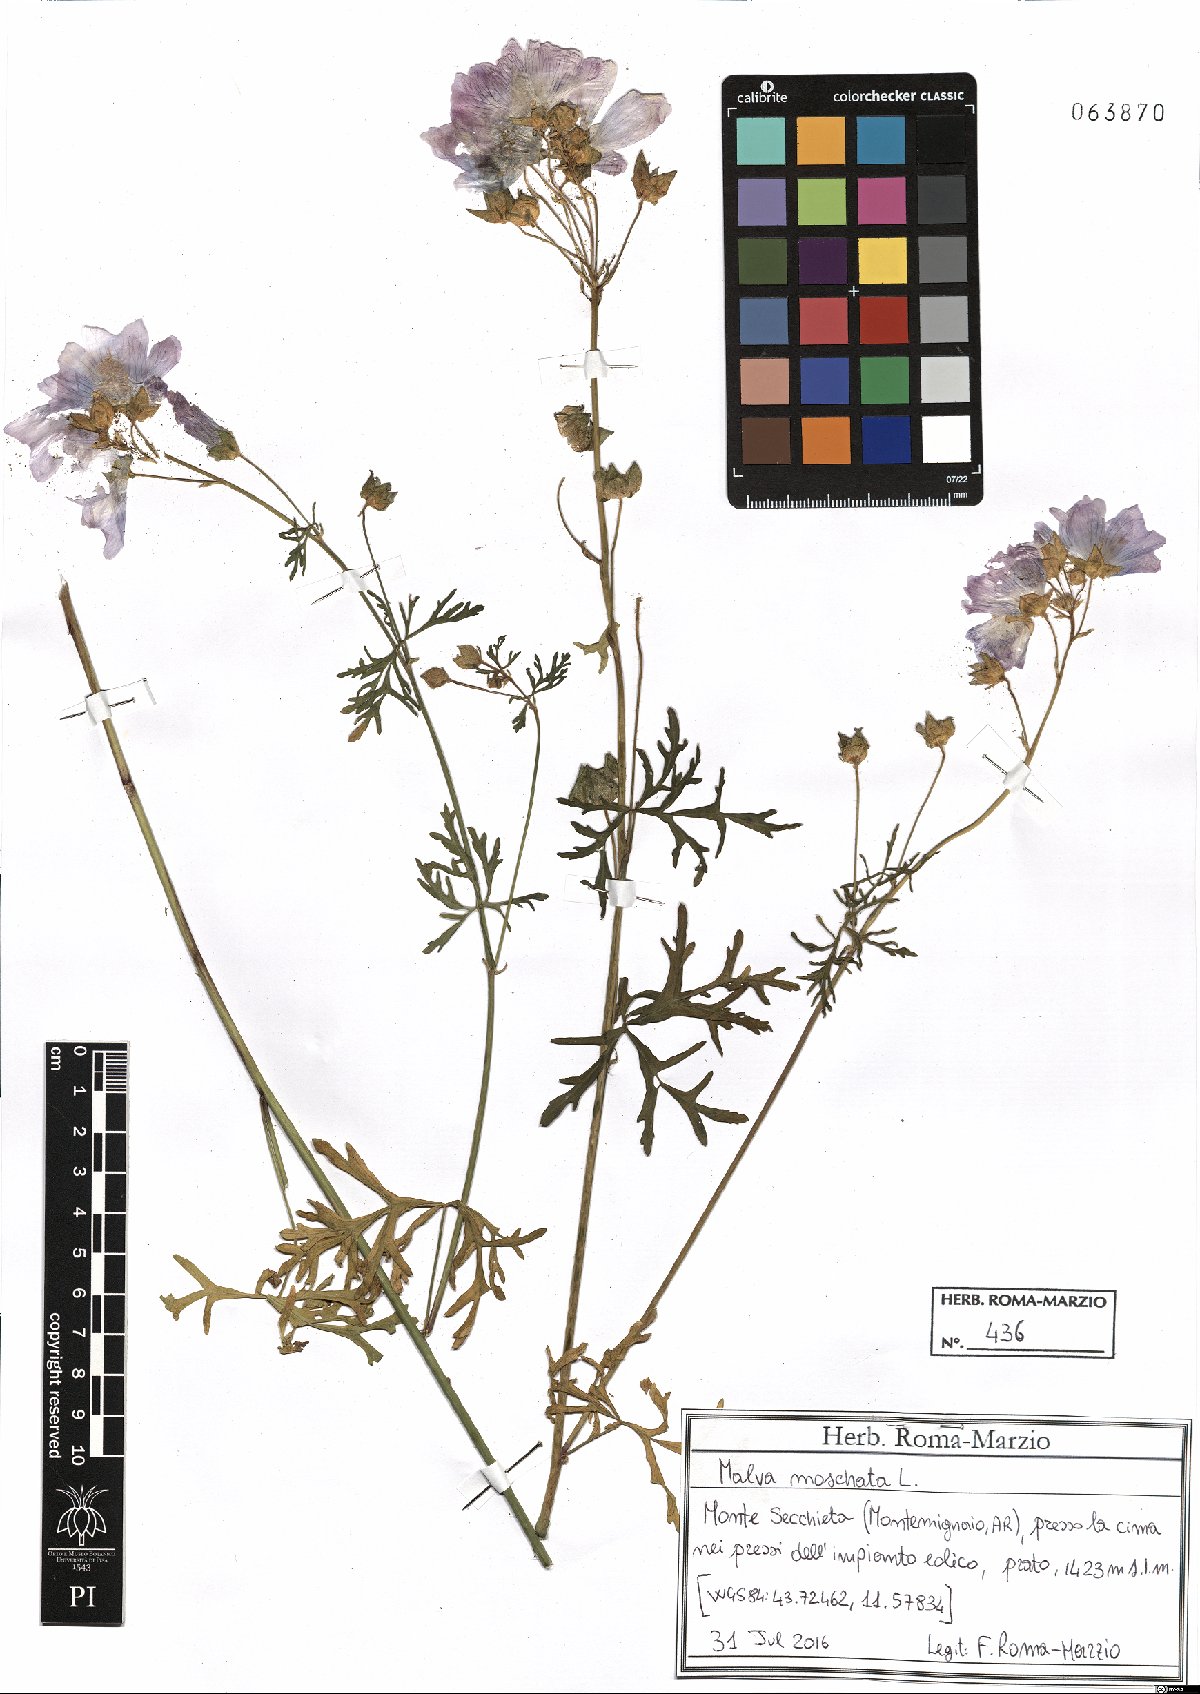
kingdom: Plantae
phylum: Tracheophyta
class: Magnoliopsida
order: Malvales
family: Malvaceae
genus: Malva
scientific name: Malva moschata
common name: Musk mallow
